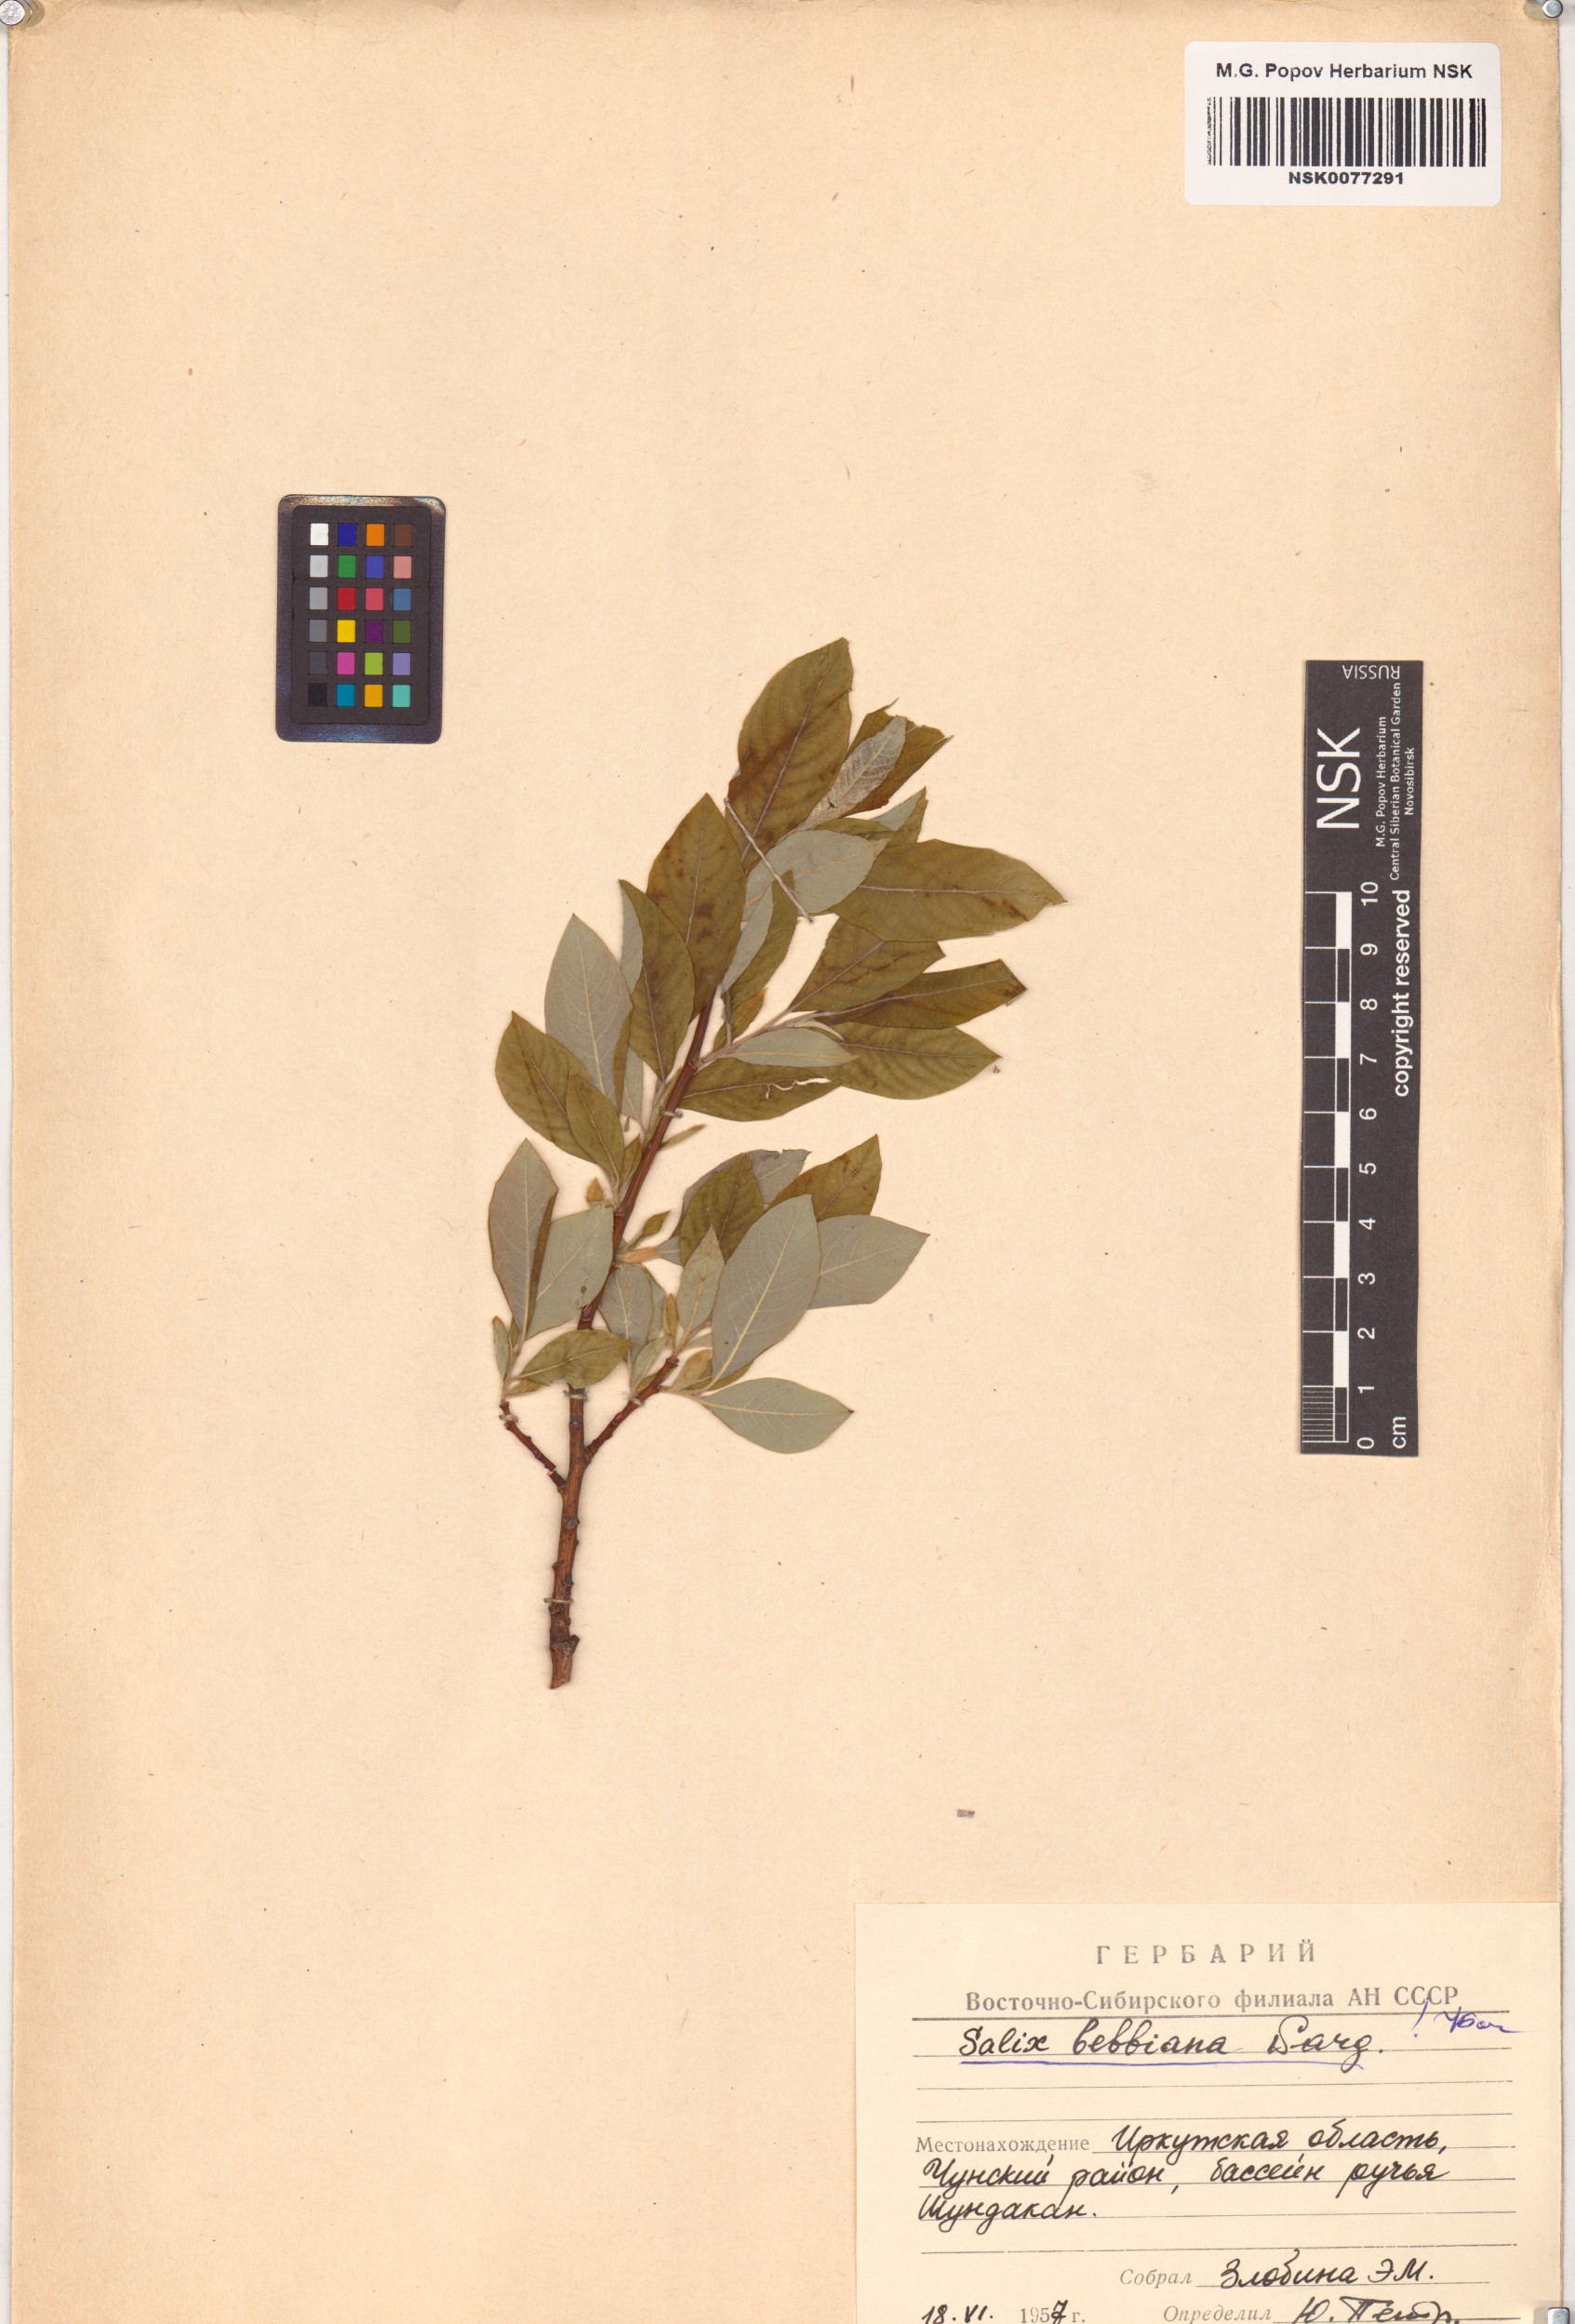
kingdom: Plantae
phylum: Tracheophyta
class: Magnoliopsida
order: Malpighiales
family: Salicaceae
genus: Salix
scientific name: Salix bebbiana
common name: Bebb's willow
